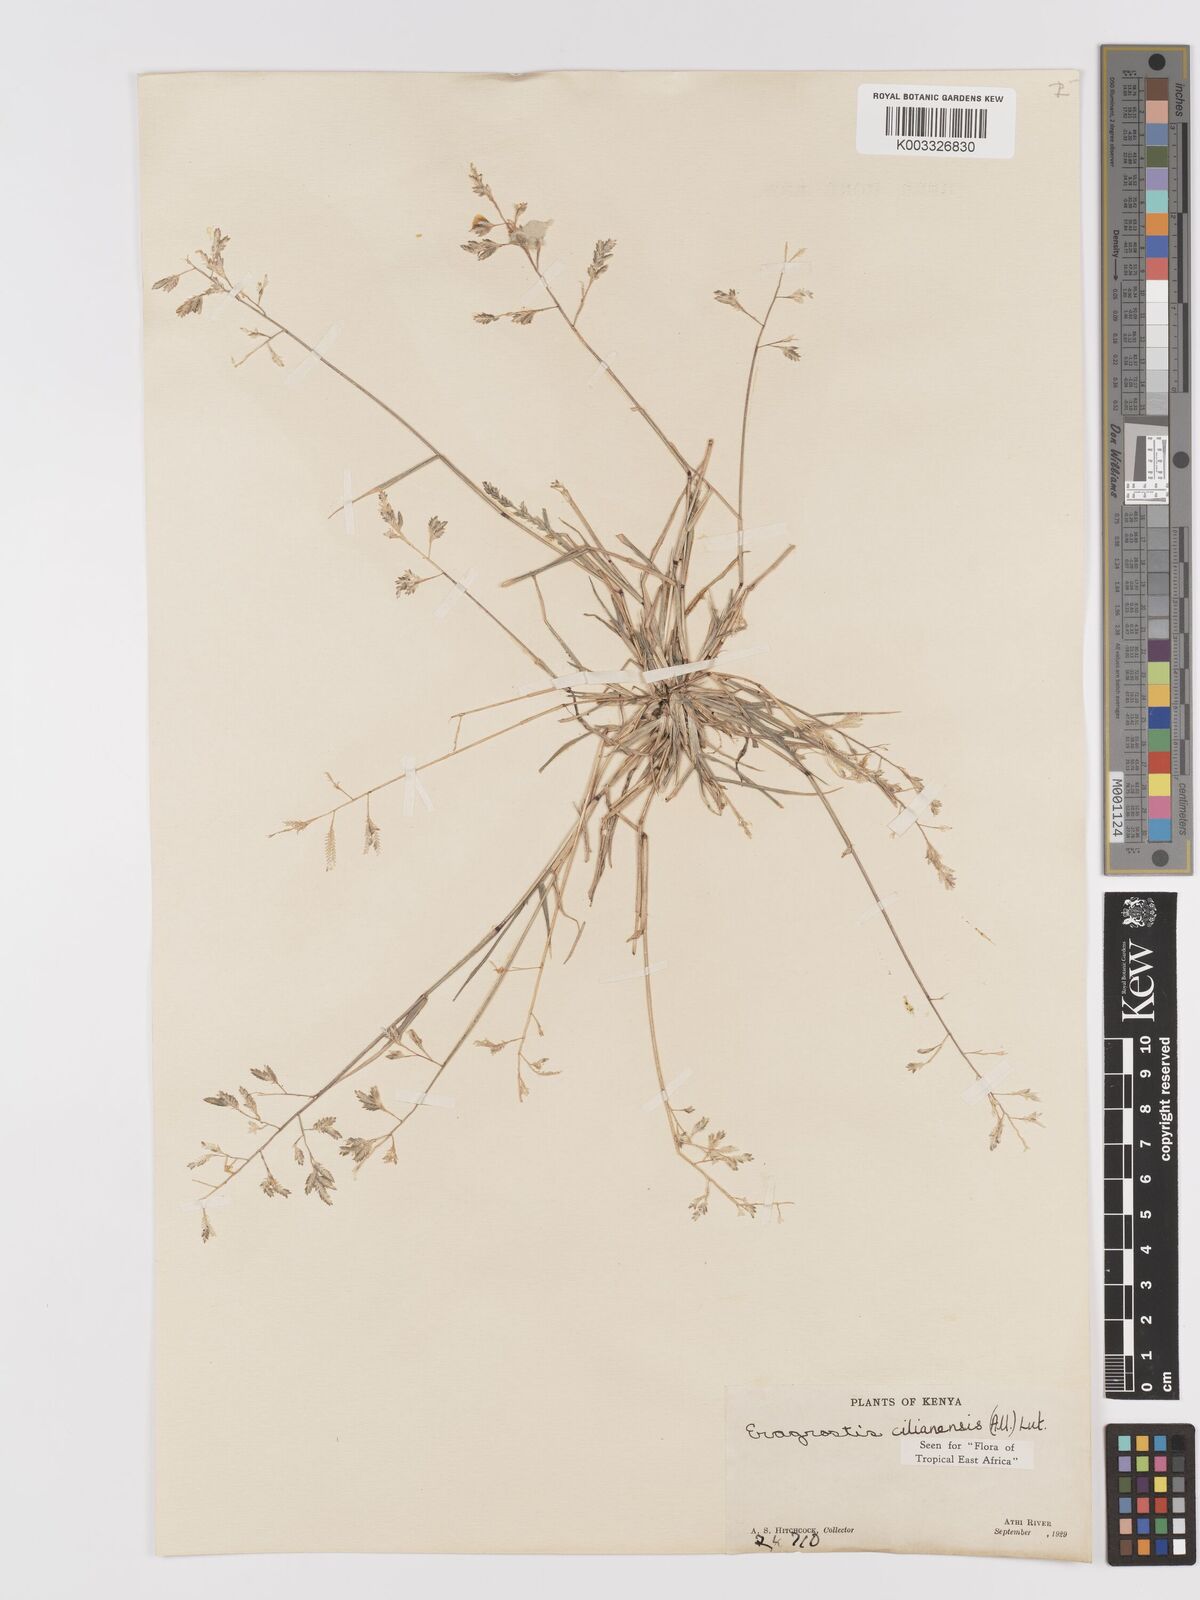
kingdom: Plantae
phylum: Tracheophyta
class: Liliopsida
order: Poales
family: Poaceae
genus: Eragrostis
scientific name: Eragrostis cilianensis
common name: Stinkgrass
